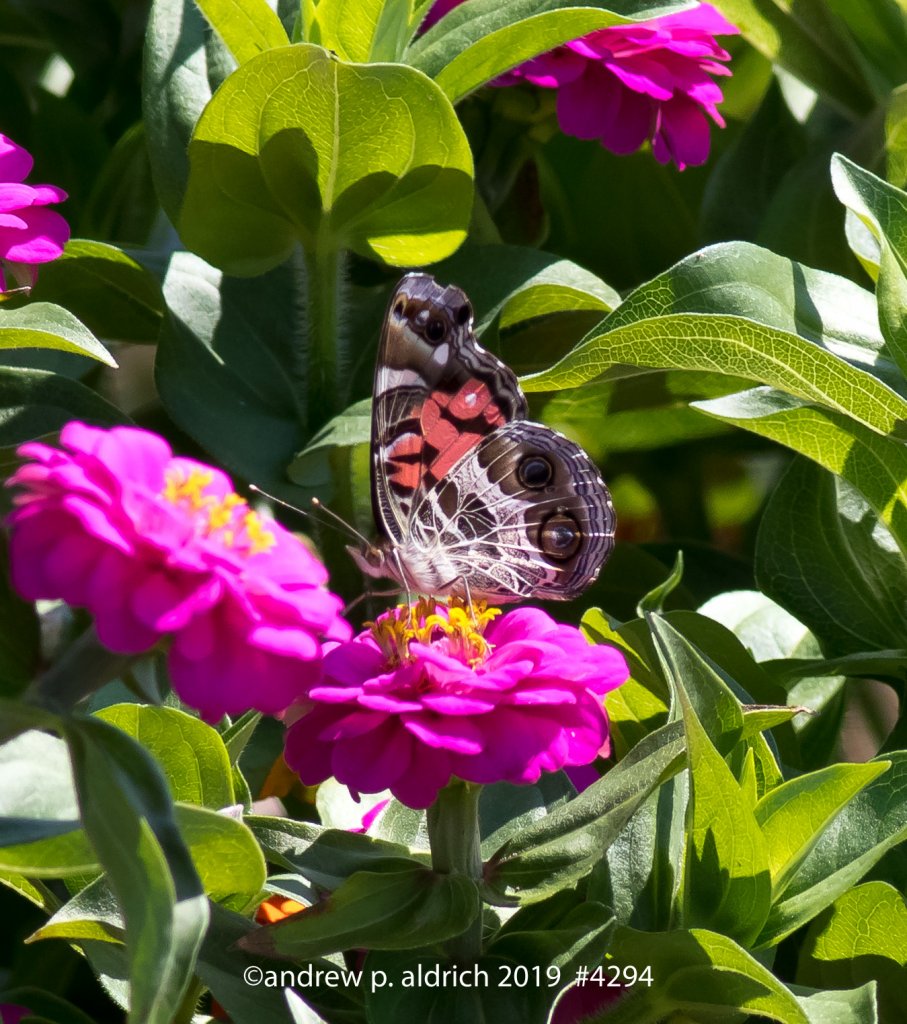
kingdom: Animalia
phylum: Arthropoda
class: Insecta
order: Lepidoptera
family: Nymphalidae
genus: Vanessa
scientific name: Vanessa virginiensis
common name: American Lady
